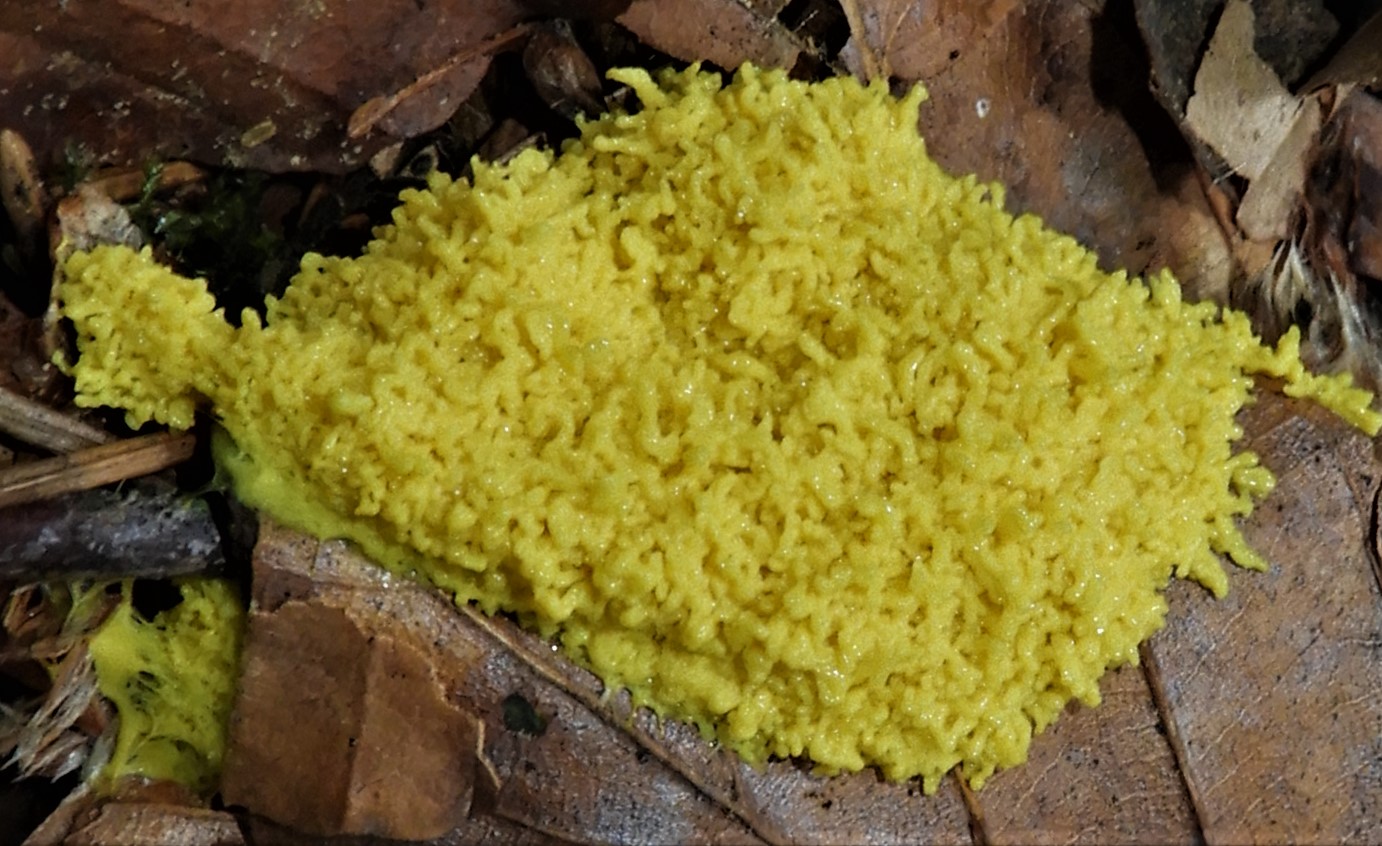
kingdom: Protozoa
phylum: Mycetozoa
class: Myxomycetes
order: Physarales
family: Physaraceae
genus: Fuligo
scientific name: Fuligo septica
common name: gul troldsmør
